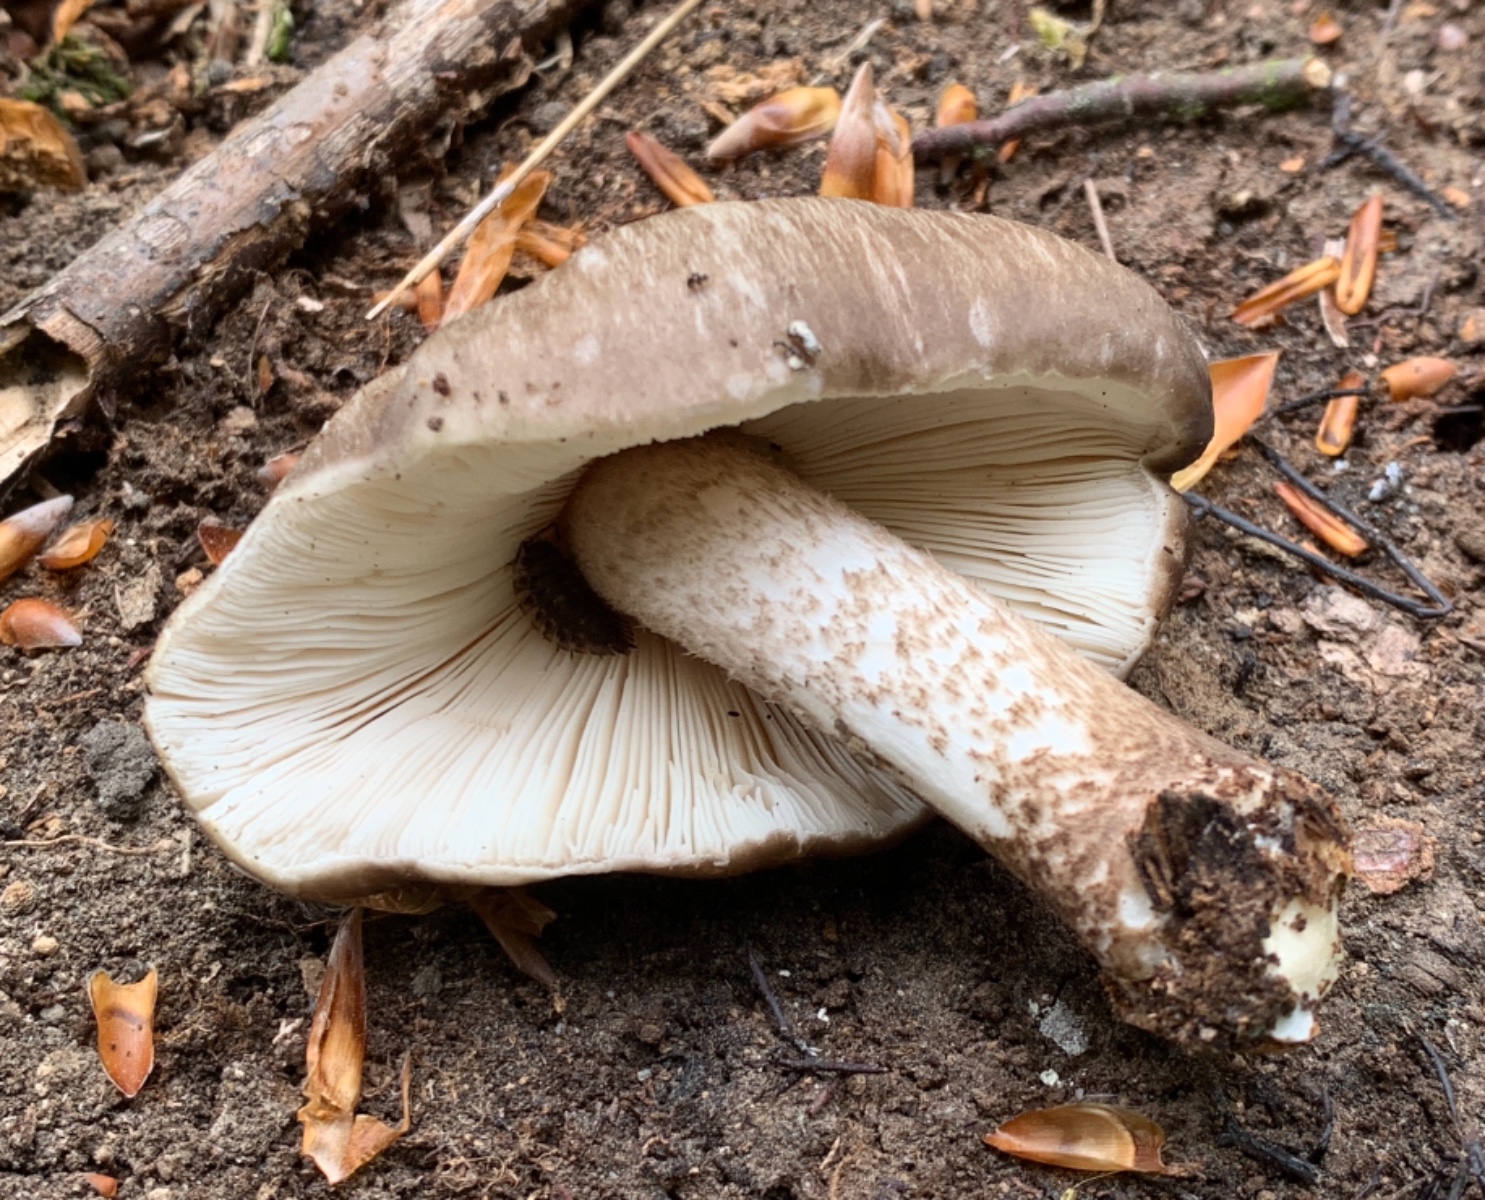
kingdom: Fungi
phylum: Basidiomycota
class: Agaricomycetes
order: Agaricales
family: Pluteaceae
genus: Pluteus
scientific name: Pluteus cervinus
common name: sodfarvet skærmhat
